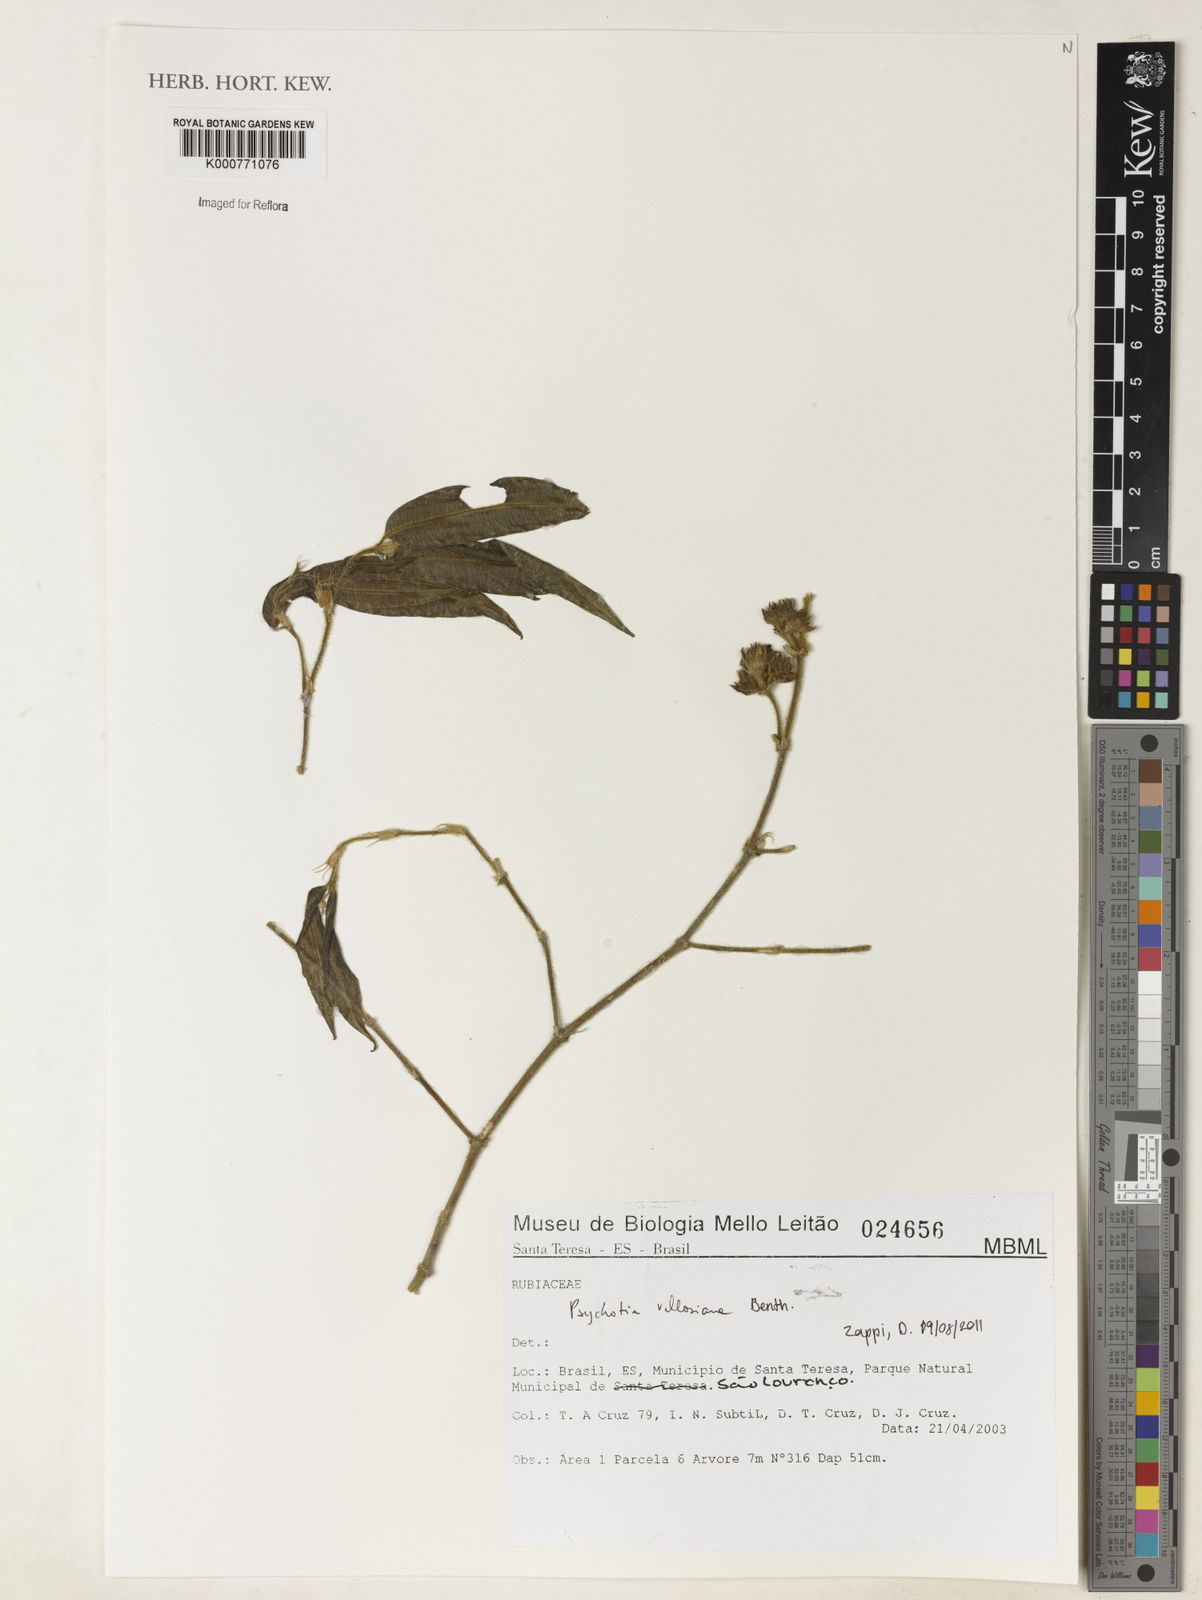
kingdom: Plantae
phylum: Tracheophyta
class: Magnoliopsida
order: Gentianales
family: Rubiaceae
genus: Palicourea
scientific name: Palicourea sessilis
